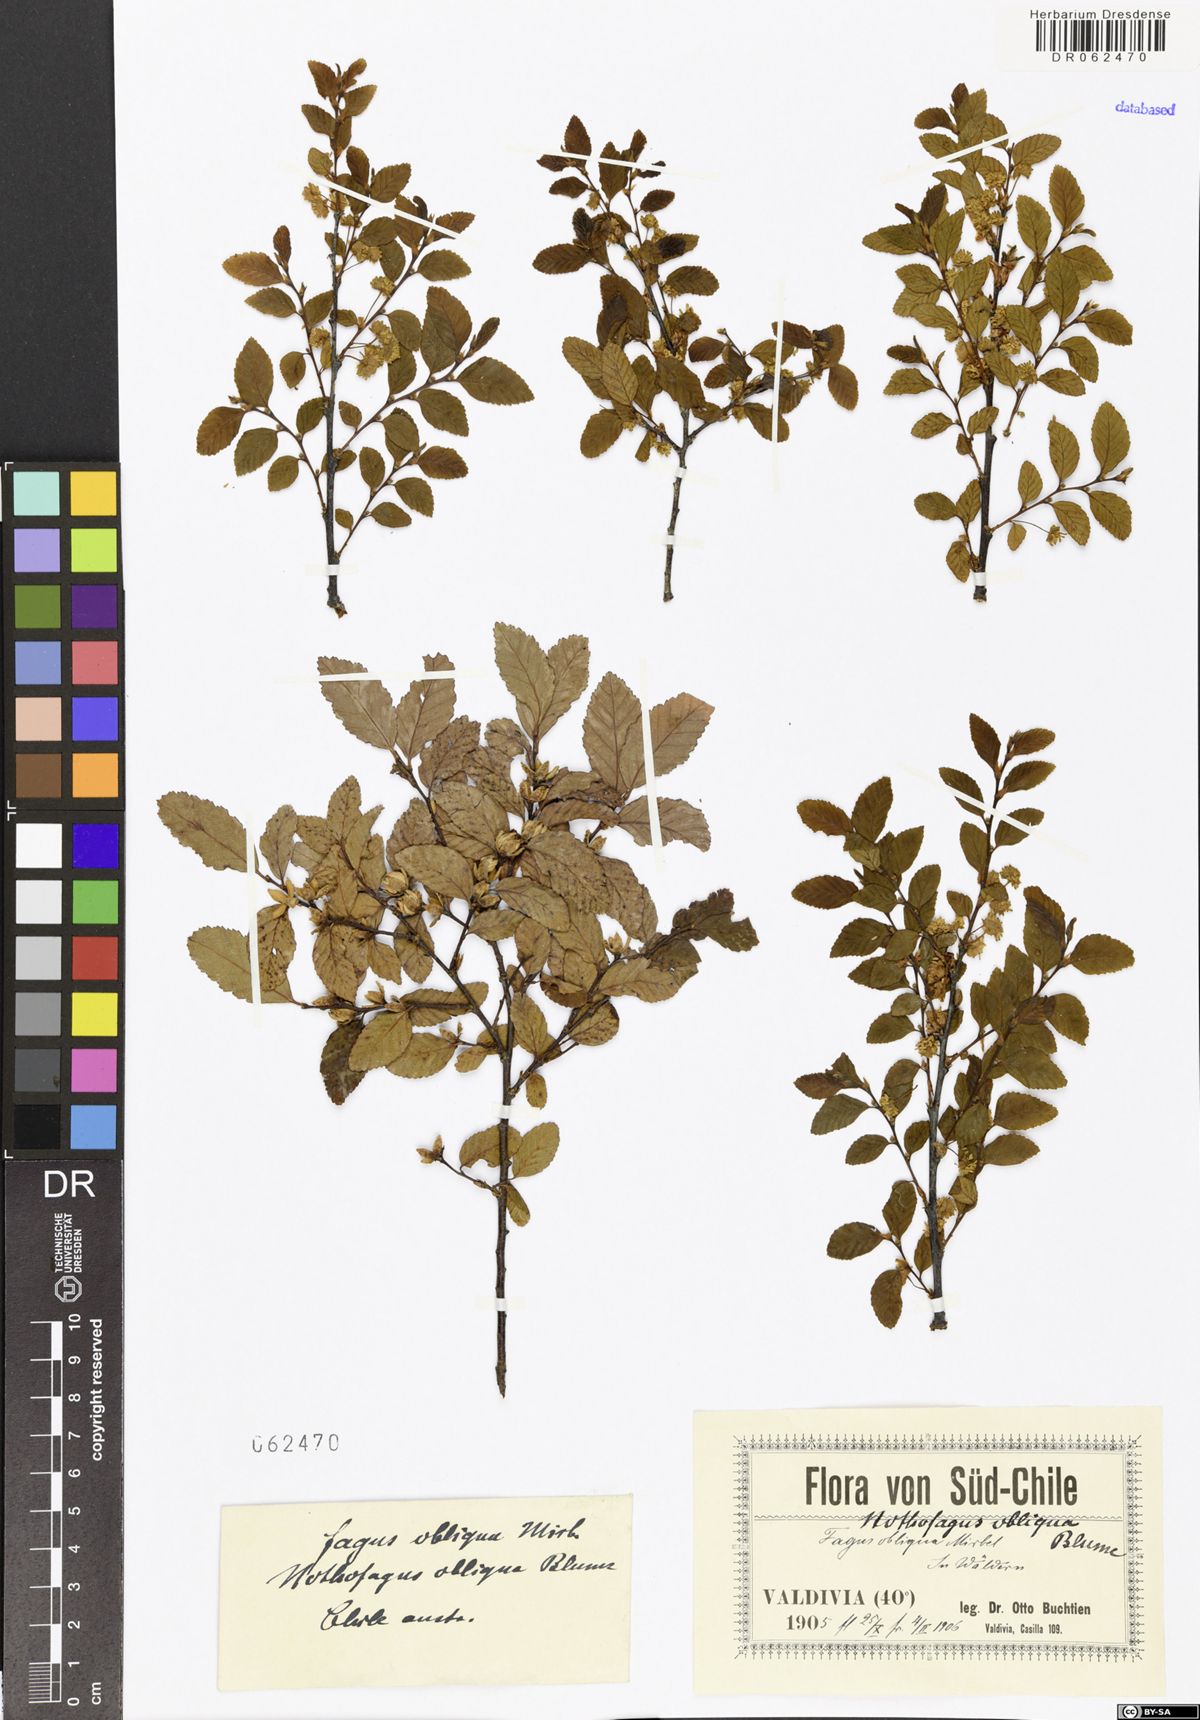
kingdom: Plantae
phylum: Tracheophyta
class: Magnoliopsida
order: Fagales
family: Nothofagaceae
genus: Nothofagus
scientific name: Nothofagus obliqua
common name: Roble beech
